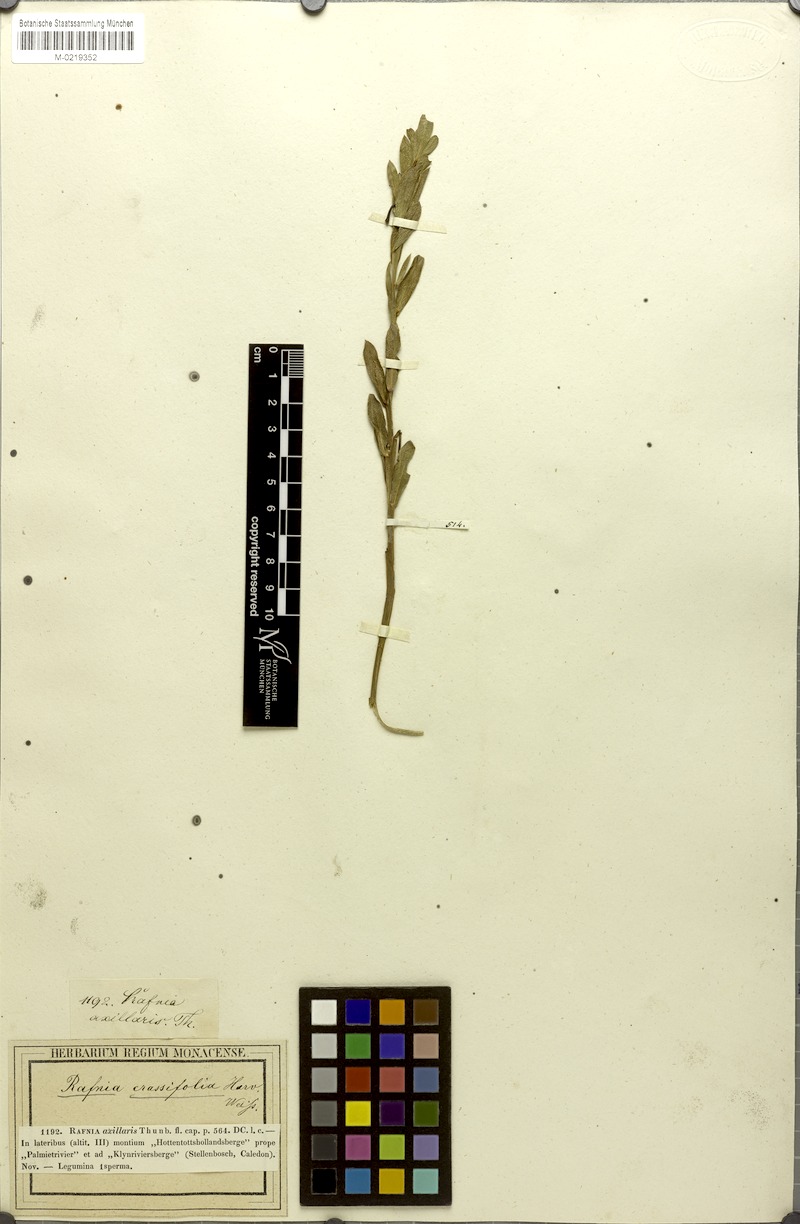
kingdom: Plantae
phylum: Tracheophyta
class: Magnoliopsida
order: Fabales
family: Fabaceae
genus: Rafnia
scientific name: Rafnia crassifolia
